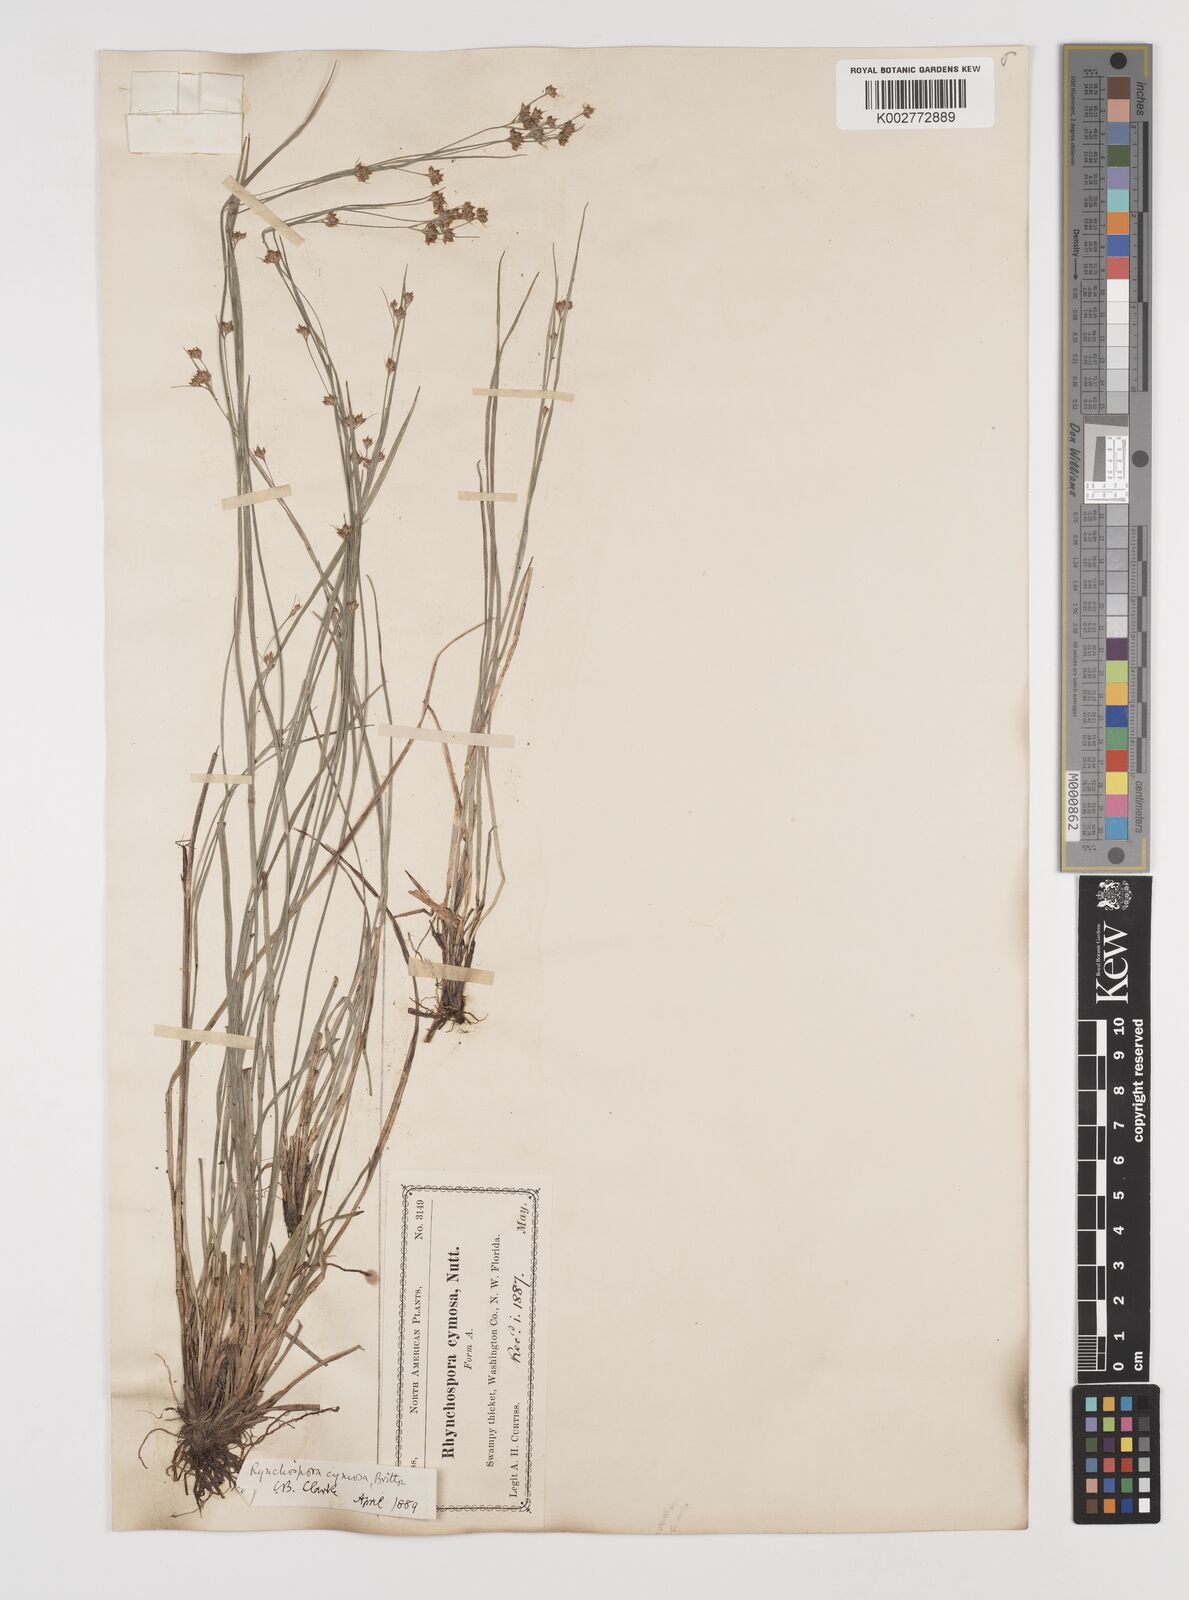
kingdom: Plantae
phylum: Tracheophyta
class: Liliopsida
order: Poales
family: Cyperaceae
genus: Scirpus
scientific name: Scirpus polyphyllus
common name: Leafy bulrush
